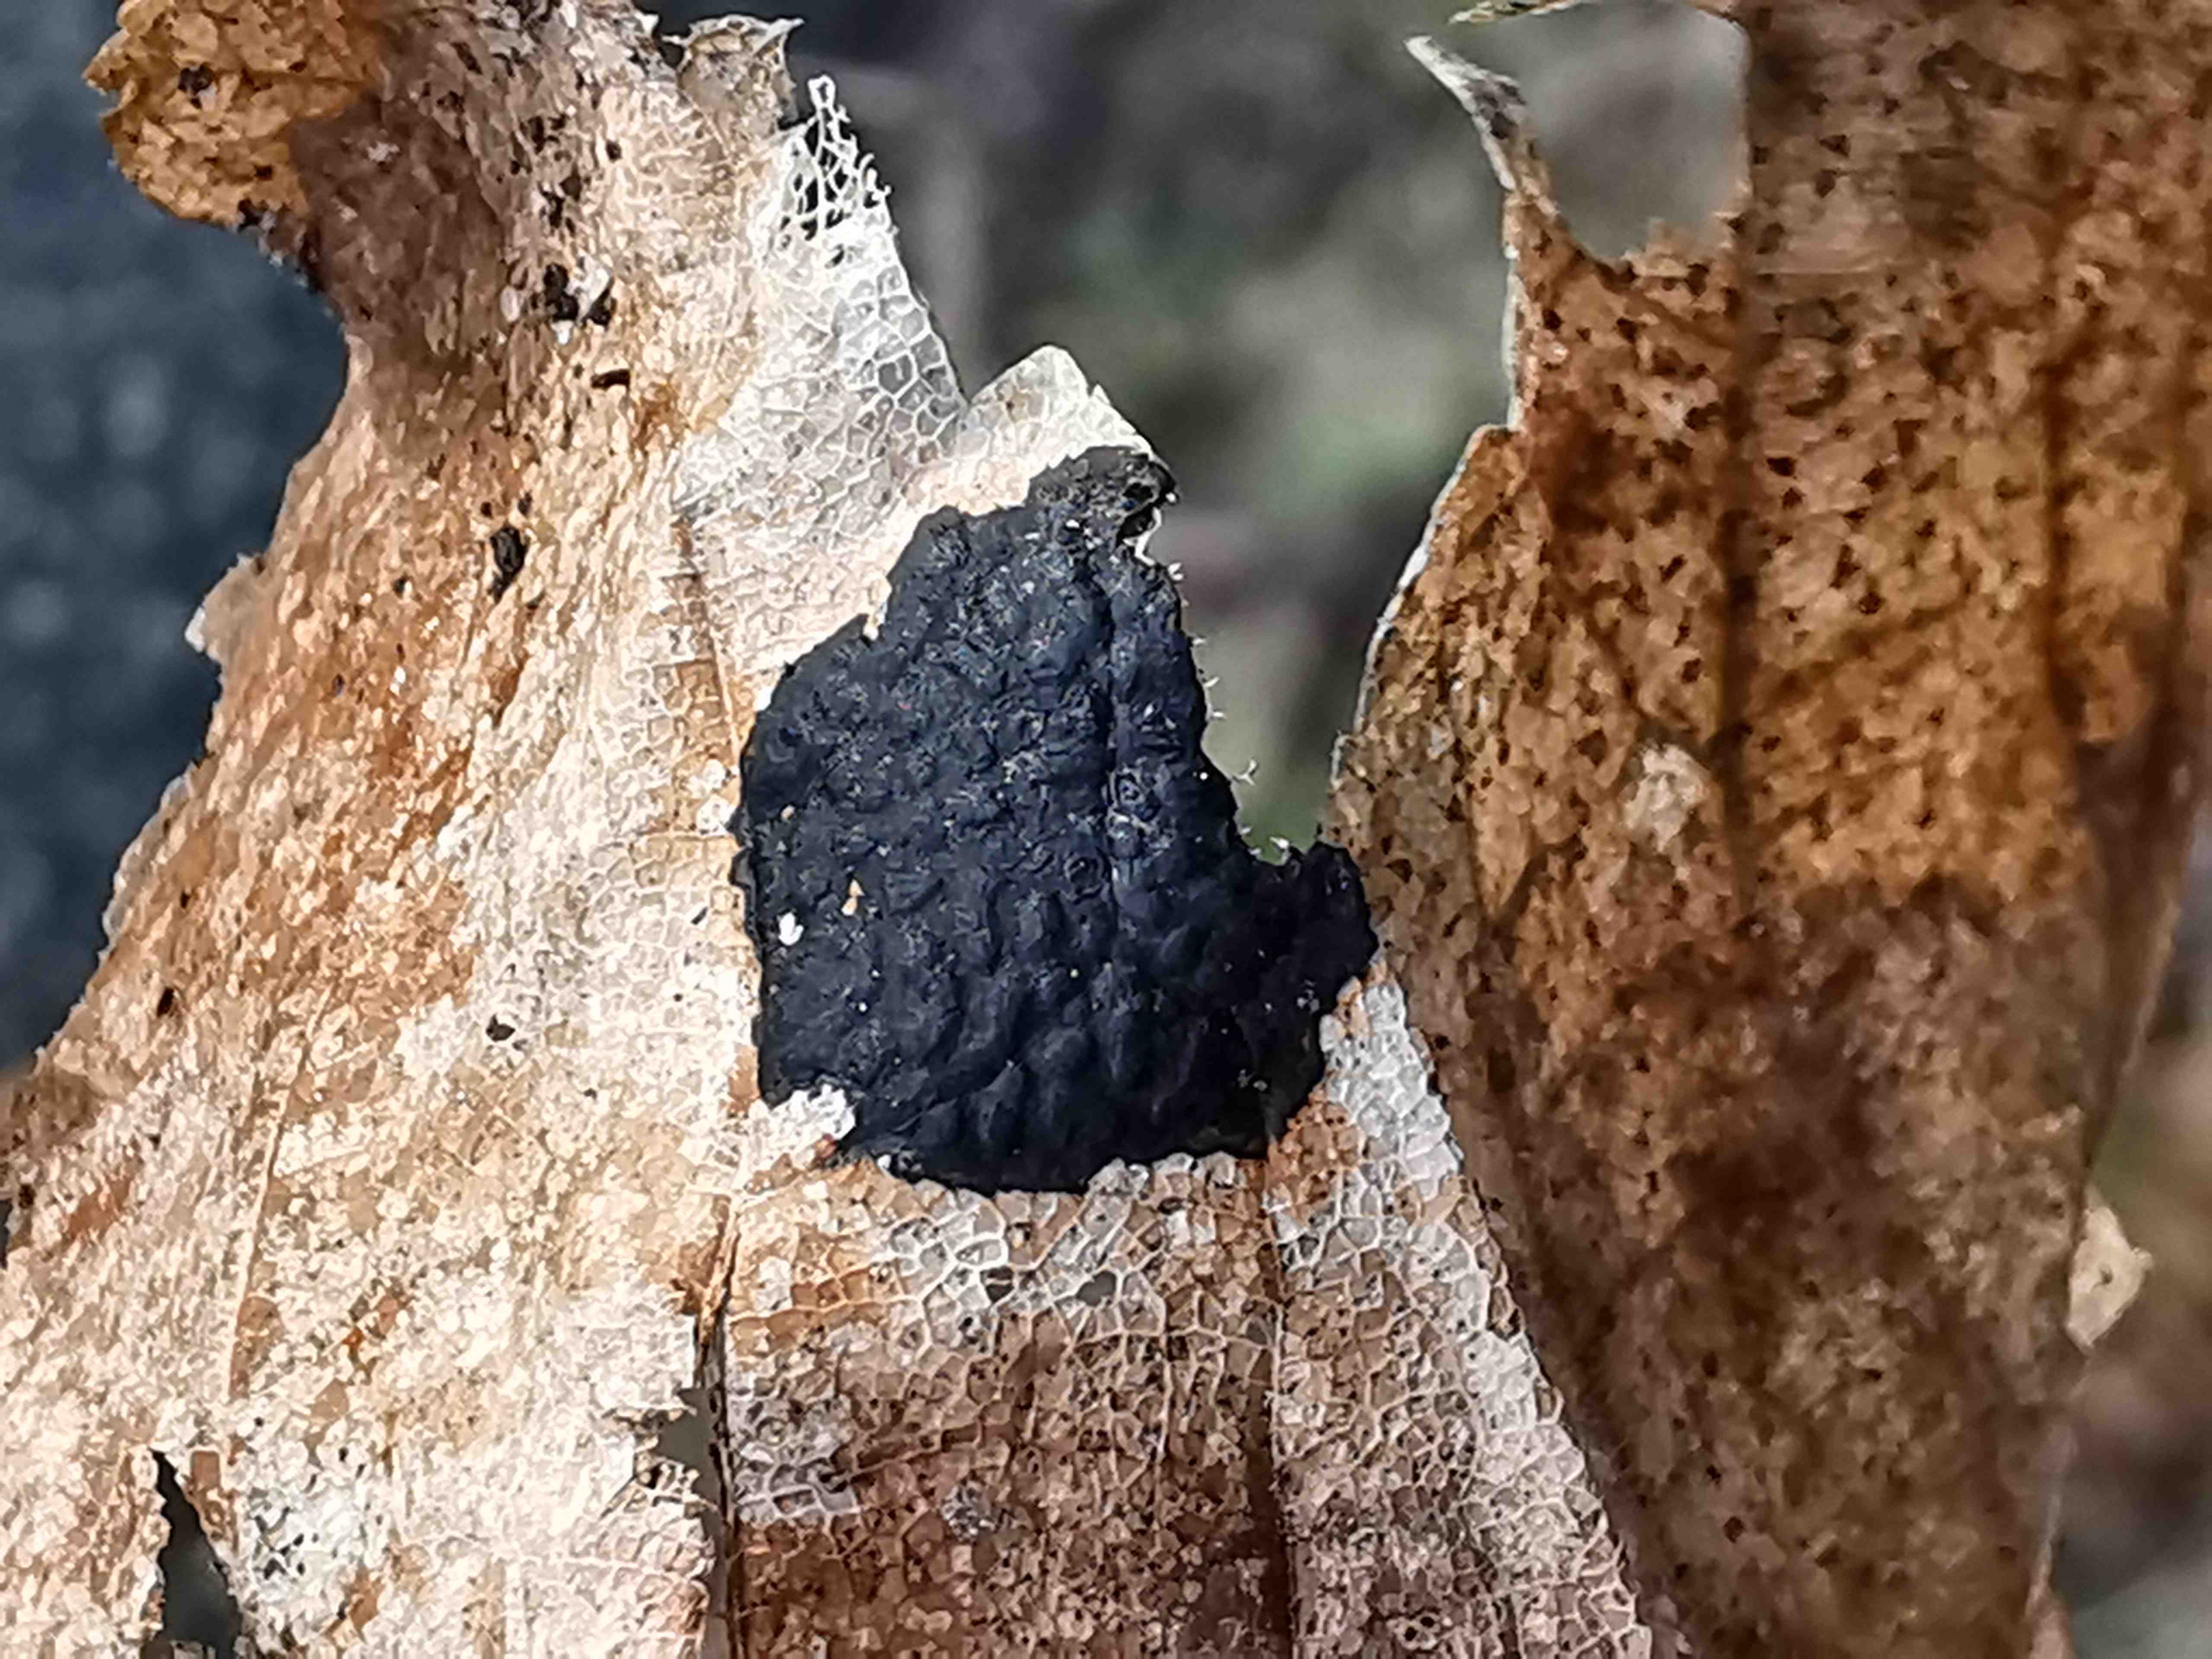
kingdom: Fungi
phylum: Ascomycota
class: Leotiomycetes
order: Rhytismatales
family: Rhytismataceae
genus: Rhytisma
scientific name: Rhytisma acerinum
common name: ahorn-rynkeplet
